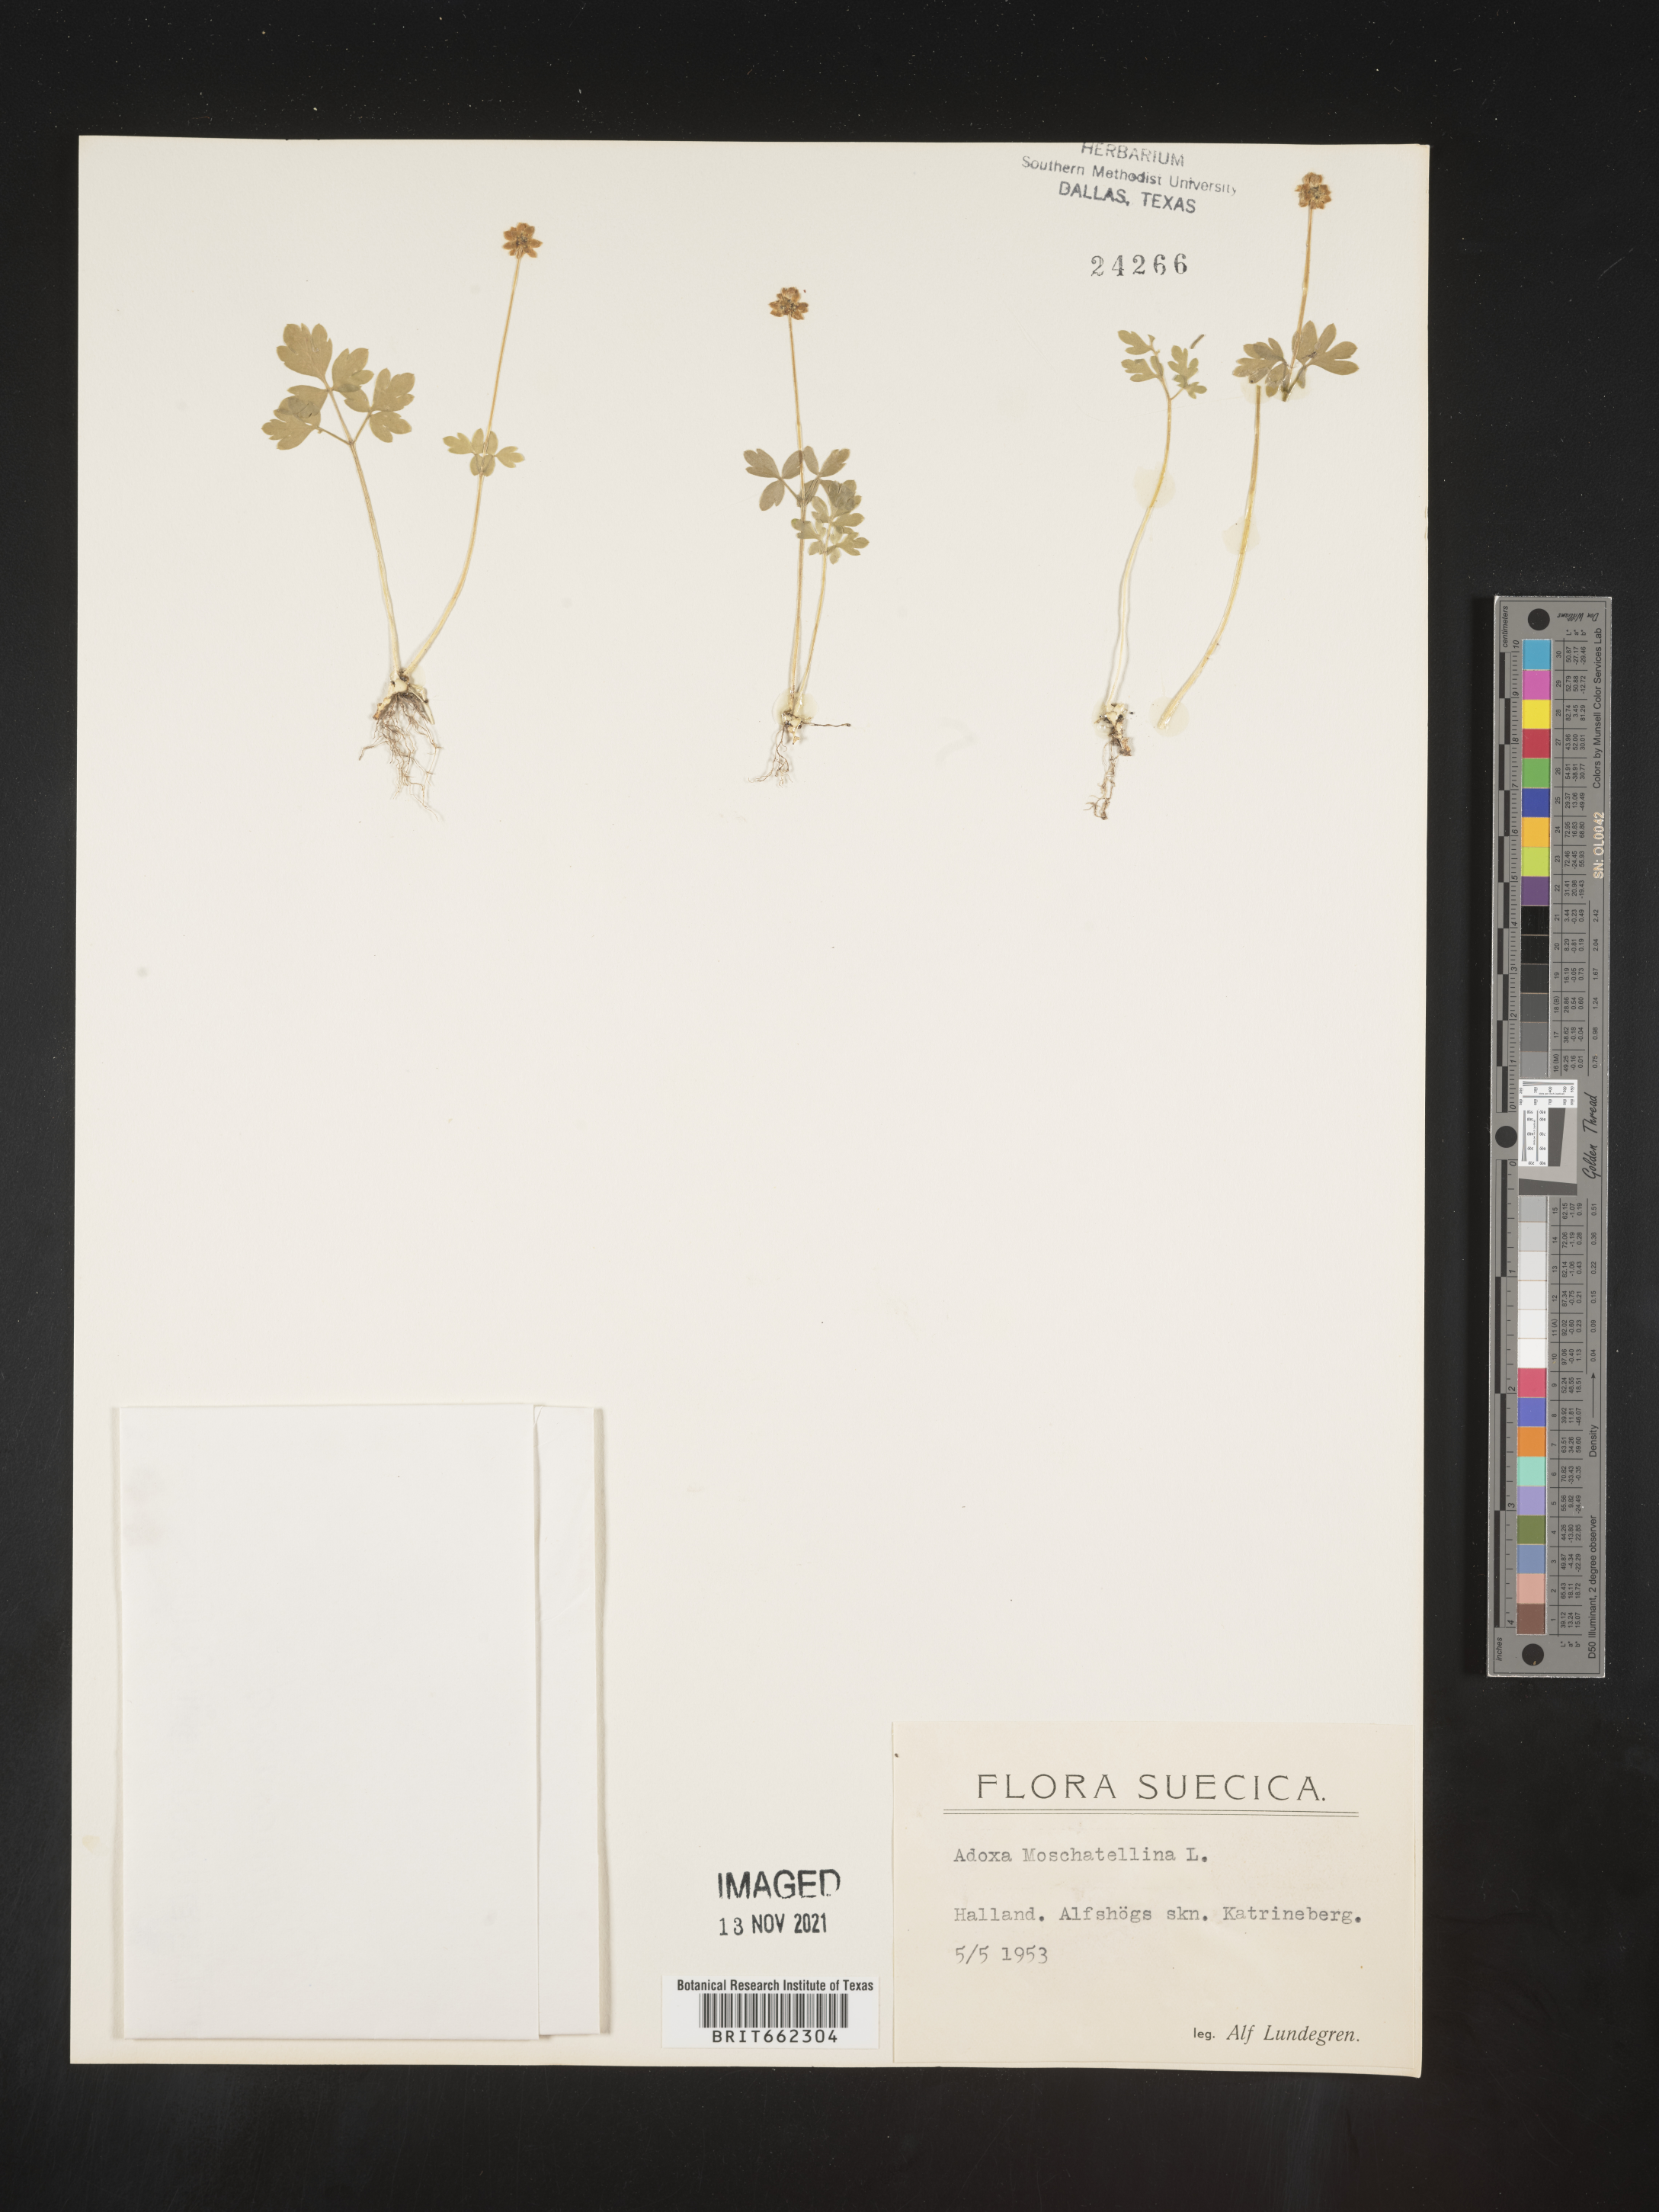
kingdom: Plantae
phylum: Tracheophyta
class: Magnoliopsida
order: Dipsacales
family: Viburnaceae
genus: Adoxa
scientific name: Adoxa
